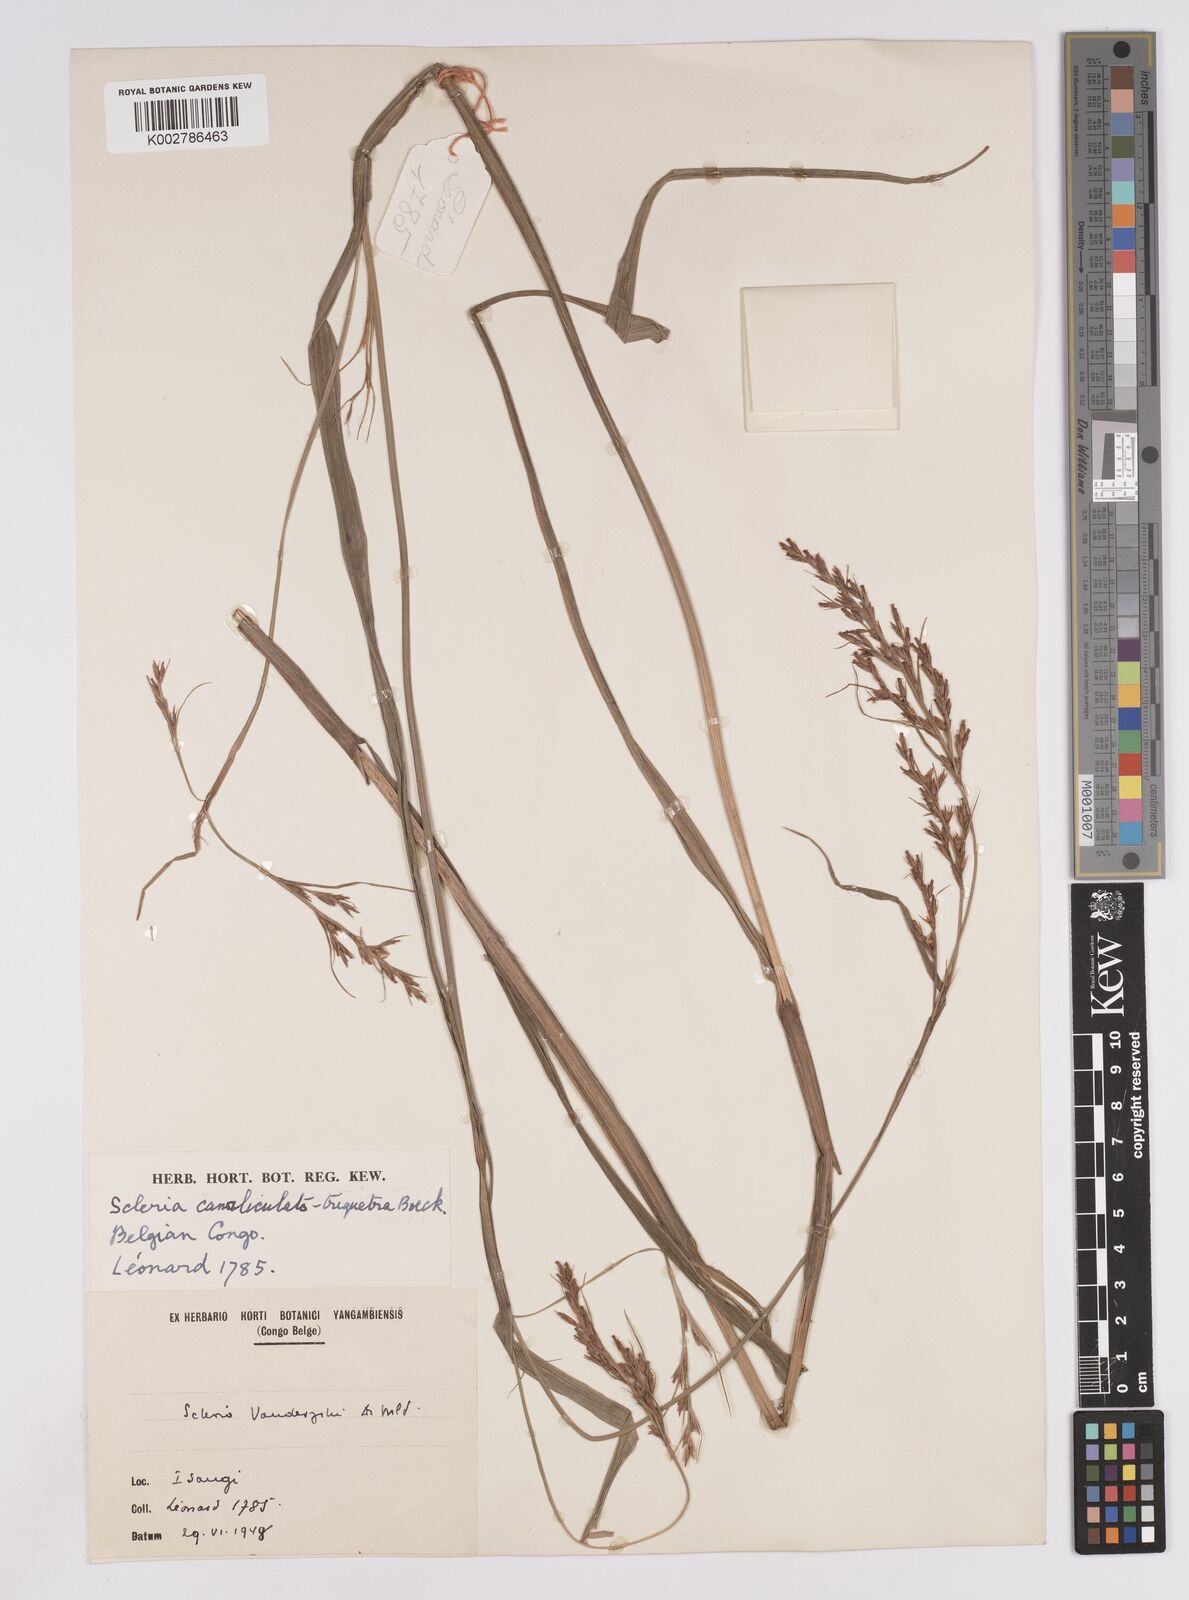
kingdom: Plantae
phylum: Tracheophyta
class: Liliopsida
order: Poales
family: Cyperaceae
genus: Scleria
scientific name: Scleria lagoensis
